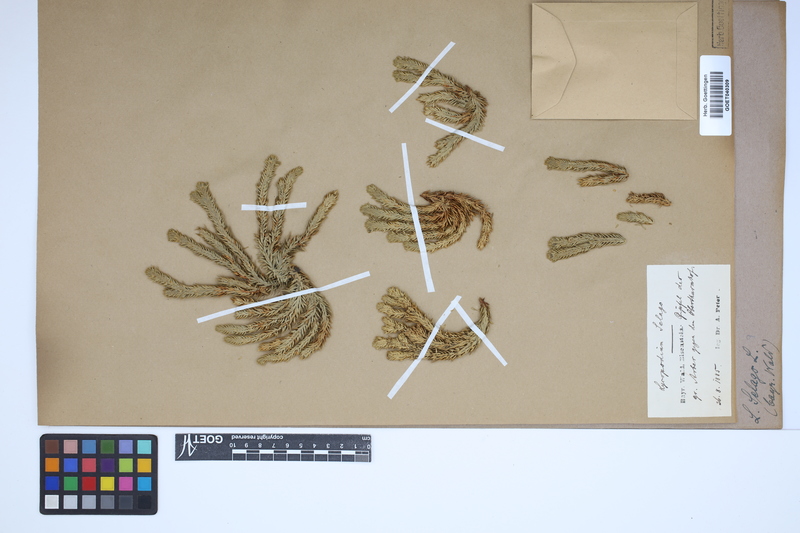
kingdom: Plantae
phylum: Tracheophyta
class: Lycopodiopsida
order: Lycopodiales
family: Lycopodiaceae
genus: Huperzia
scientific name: Huperzia selago
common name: Northern firmoss
